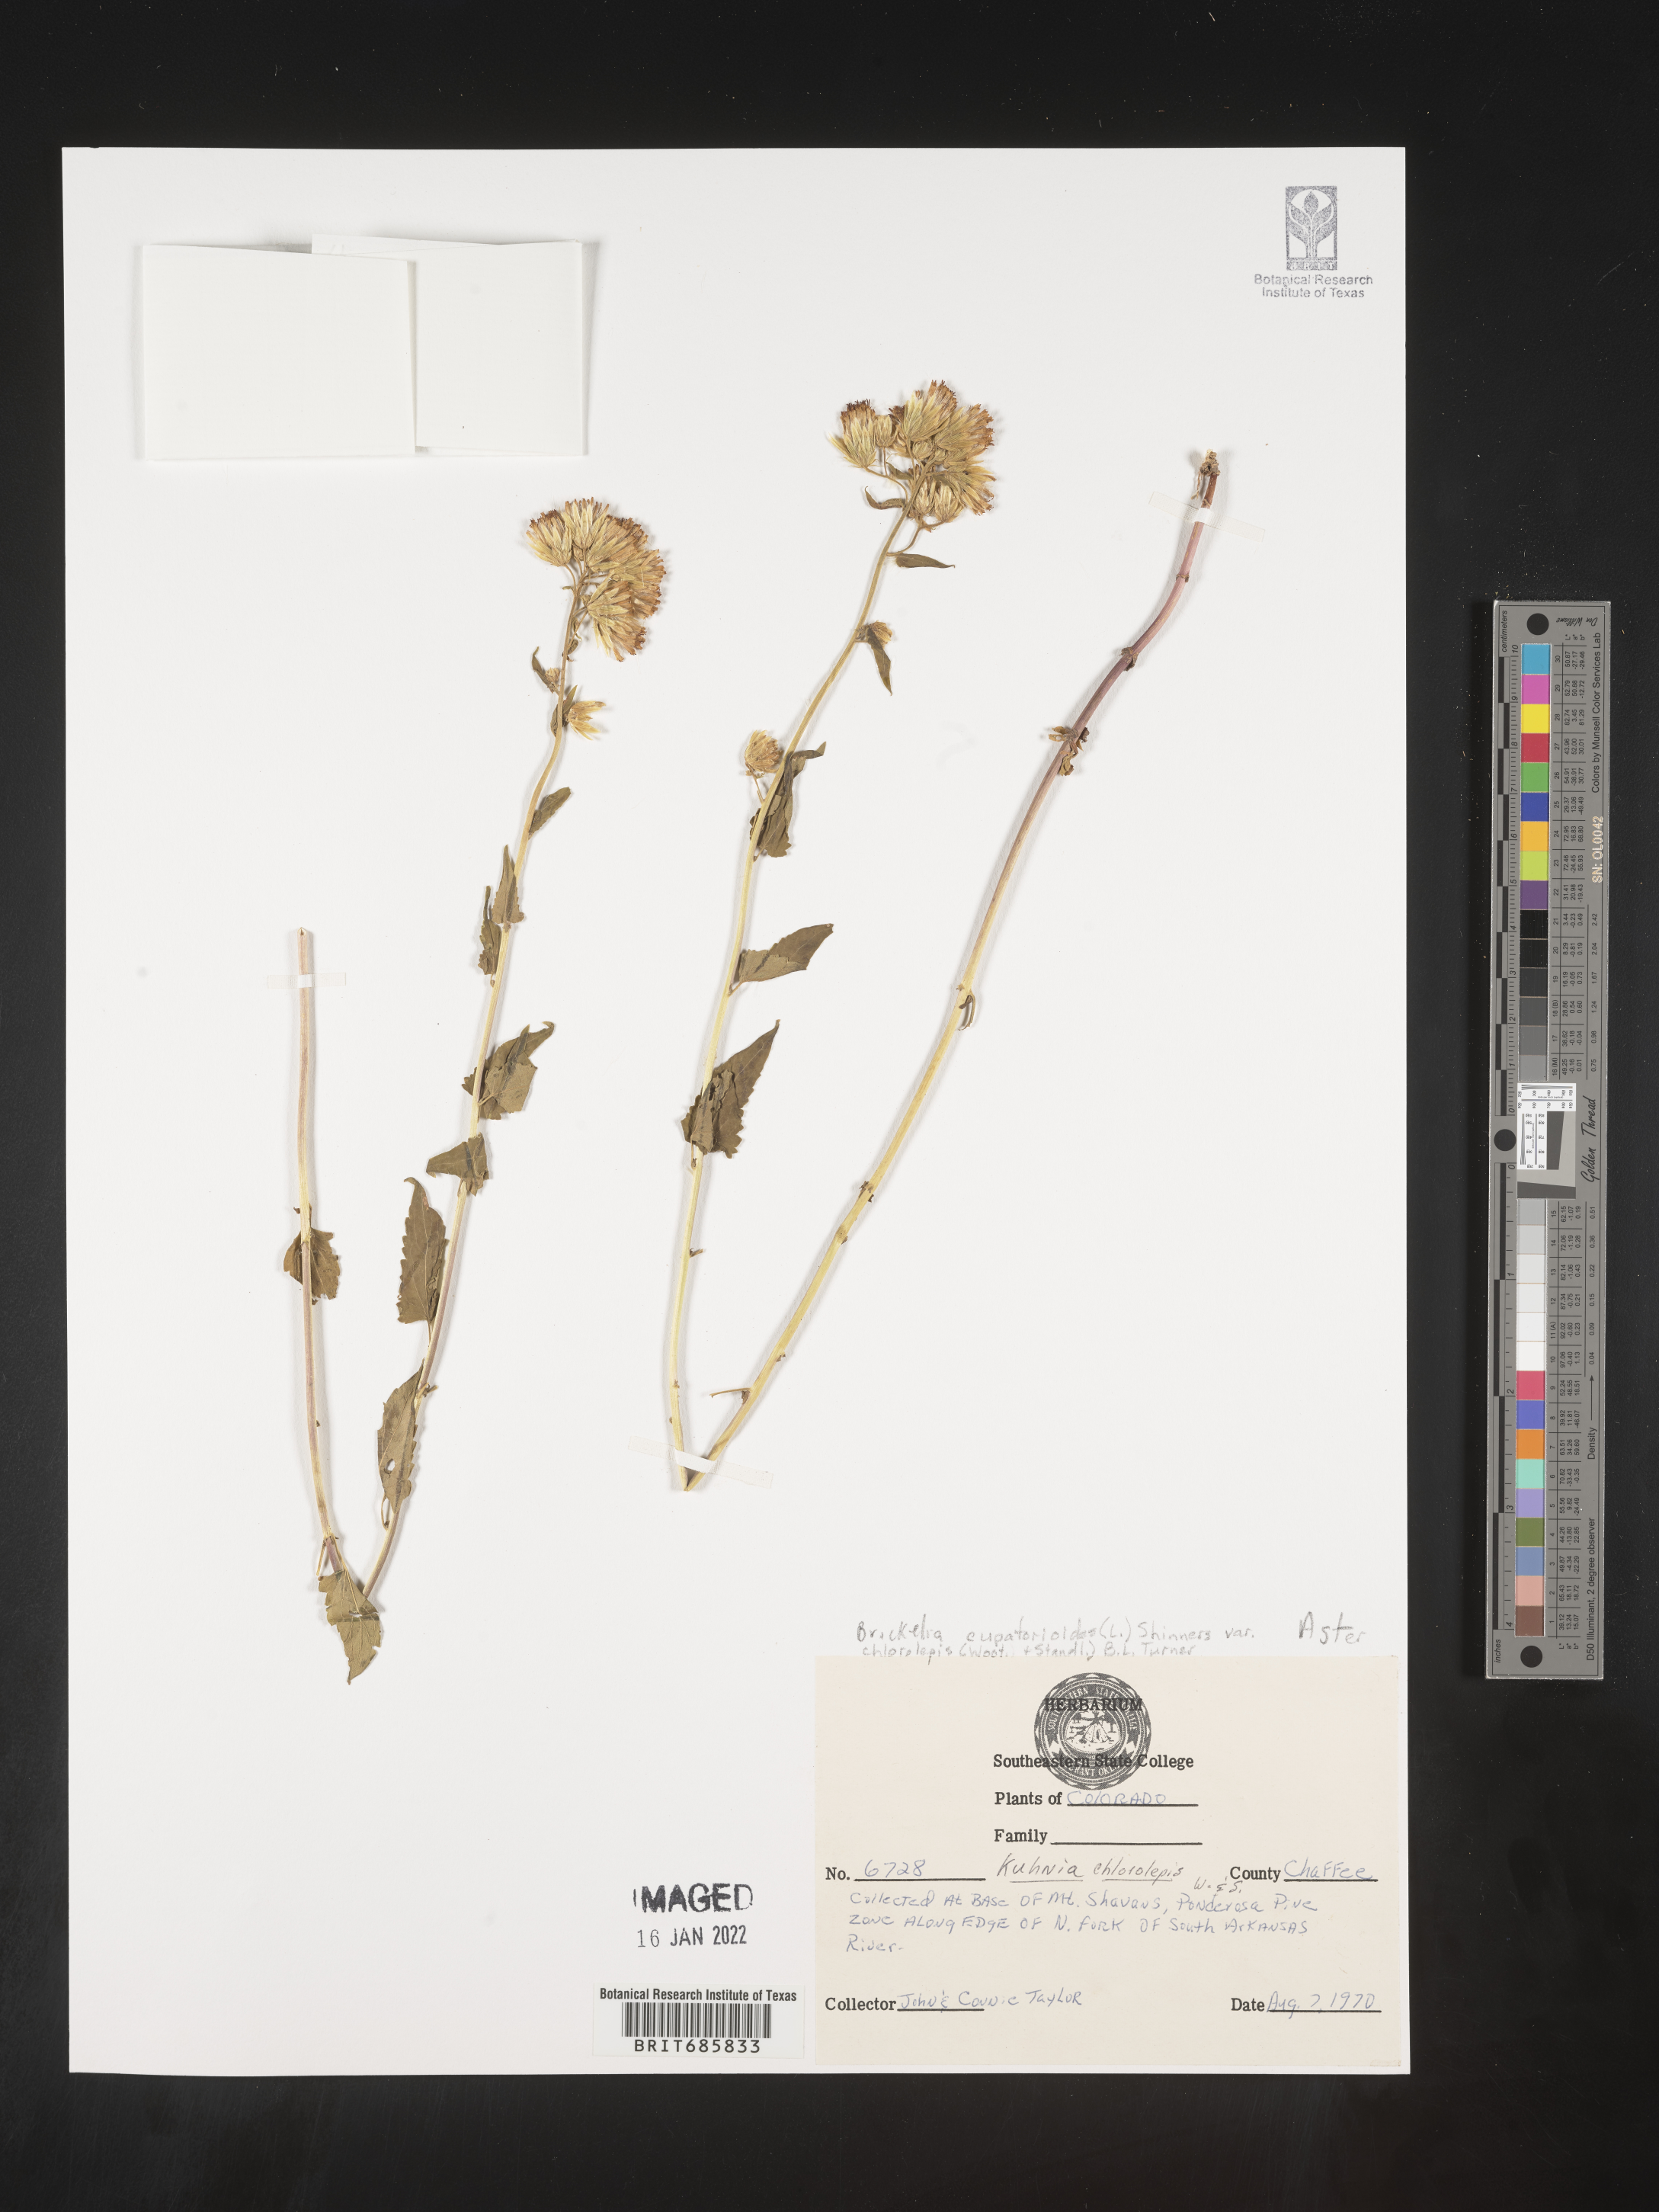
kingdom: Plantae
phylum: Tracheophyta
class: Magnoliopsida
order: Asterales
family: Asteraceae
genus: Brickellia
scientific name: Brickellia leptophylla
